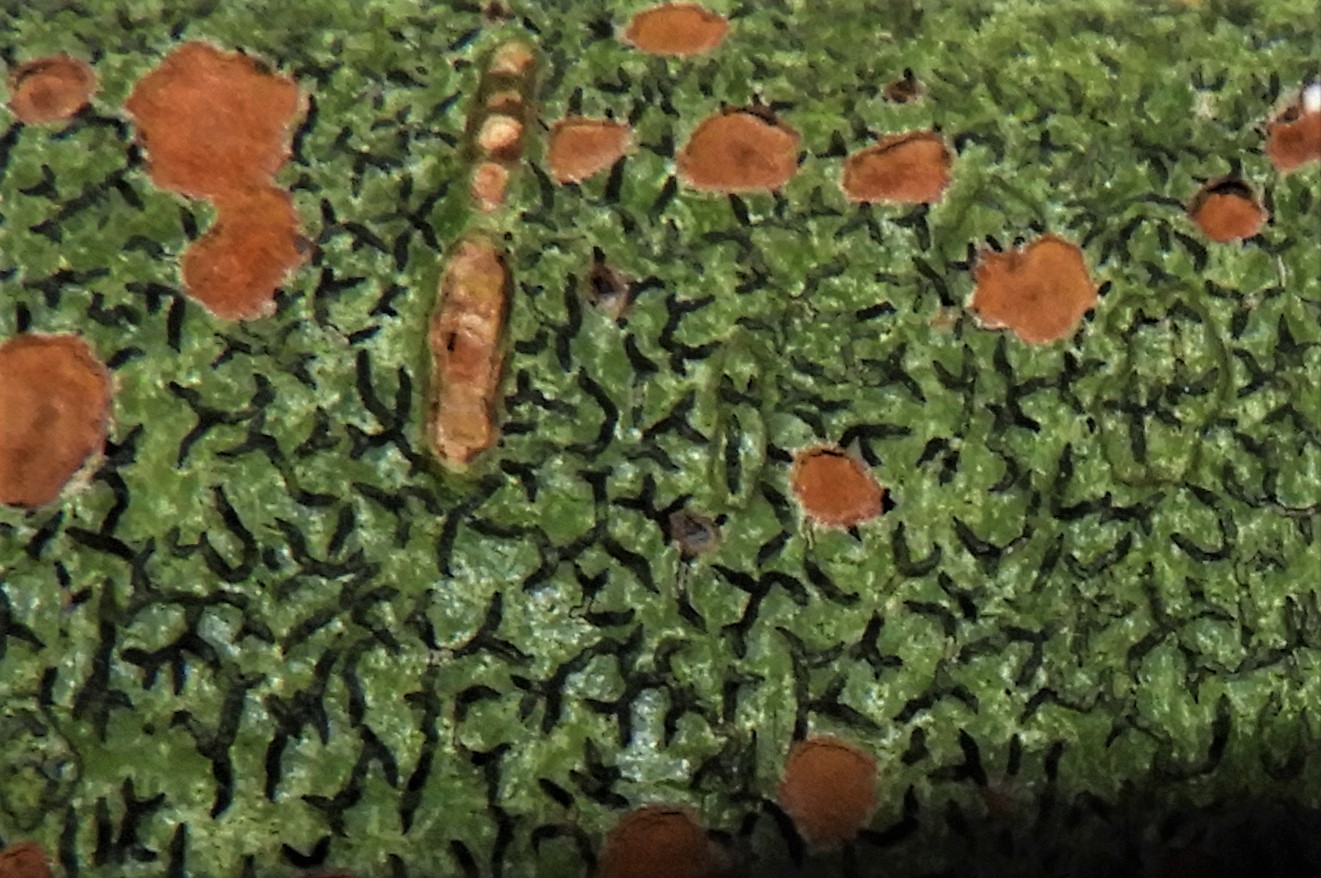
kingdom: Fungi
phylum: Ascomycota
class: Lecanoromycetes
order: Ostropales
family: Graphidaceae
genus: Graphis
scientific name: Graphis scripta
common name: almindelig skriftlav
